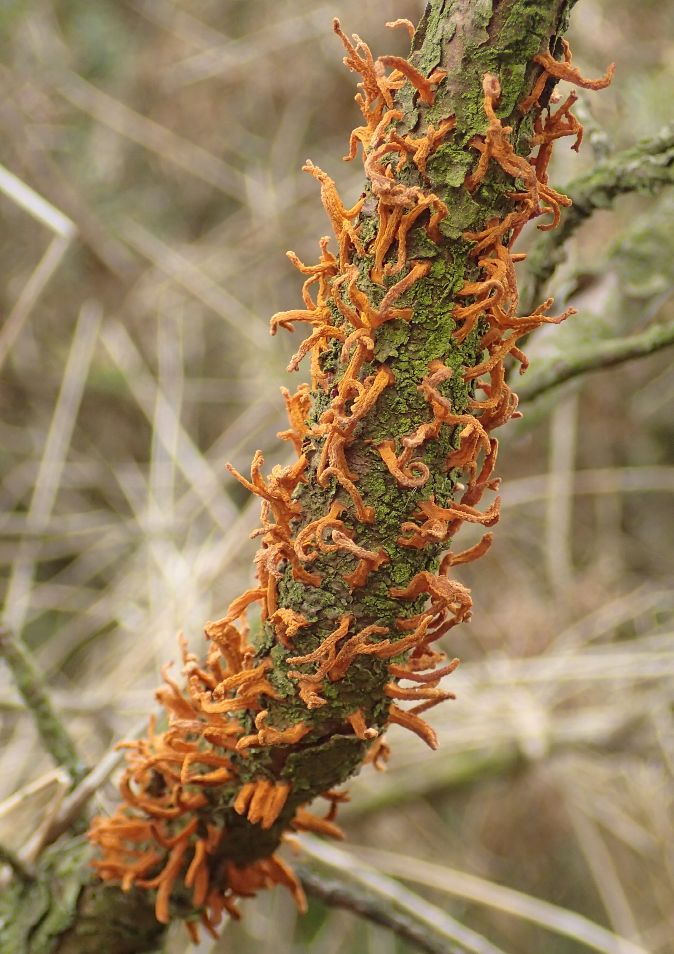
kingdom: Fungi
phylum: Basidiomycota
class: Pucciniomycetes
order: Pucciniales
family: Gymnosporangiaceae
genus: Gymnosporangium
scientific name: Gymnosporangium clavariiforme
